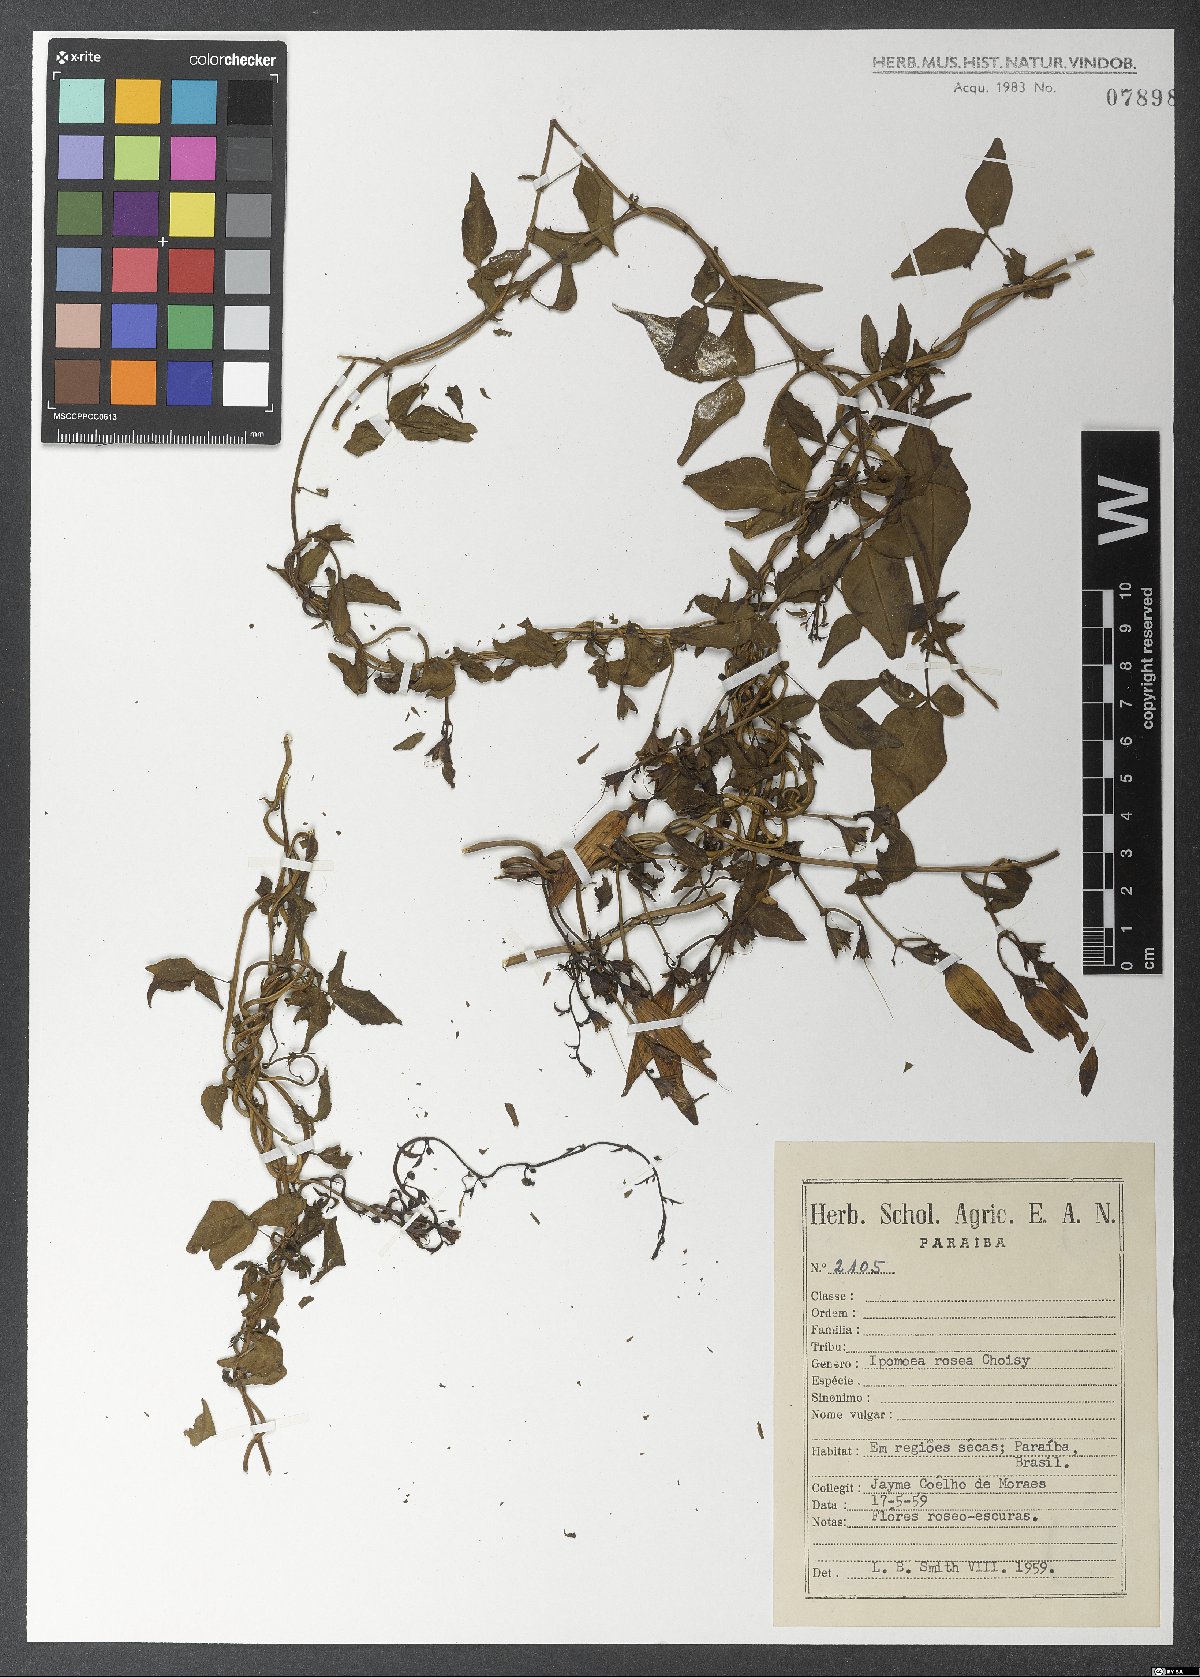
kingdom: Plantae
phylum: Tracheophyta
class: Magnoliopsida
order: Solanales
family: Convolvulaceae
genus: Ipomoea
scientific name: Ipomoea rosea
